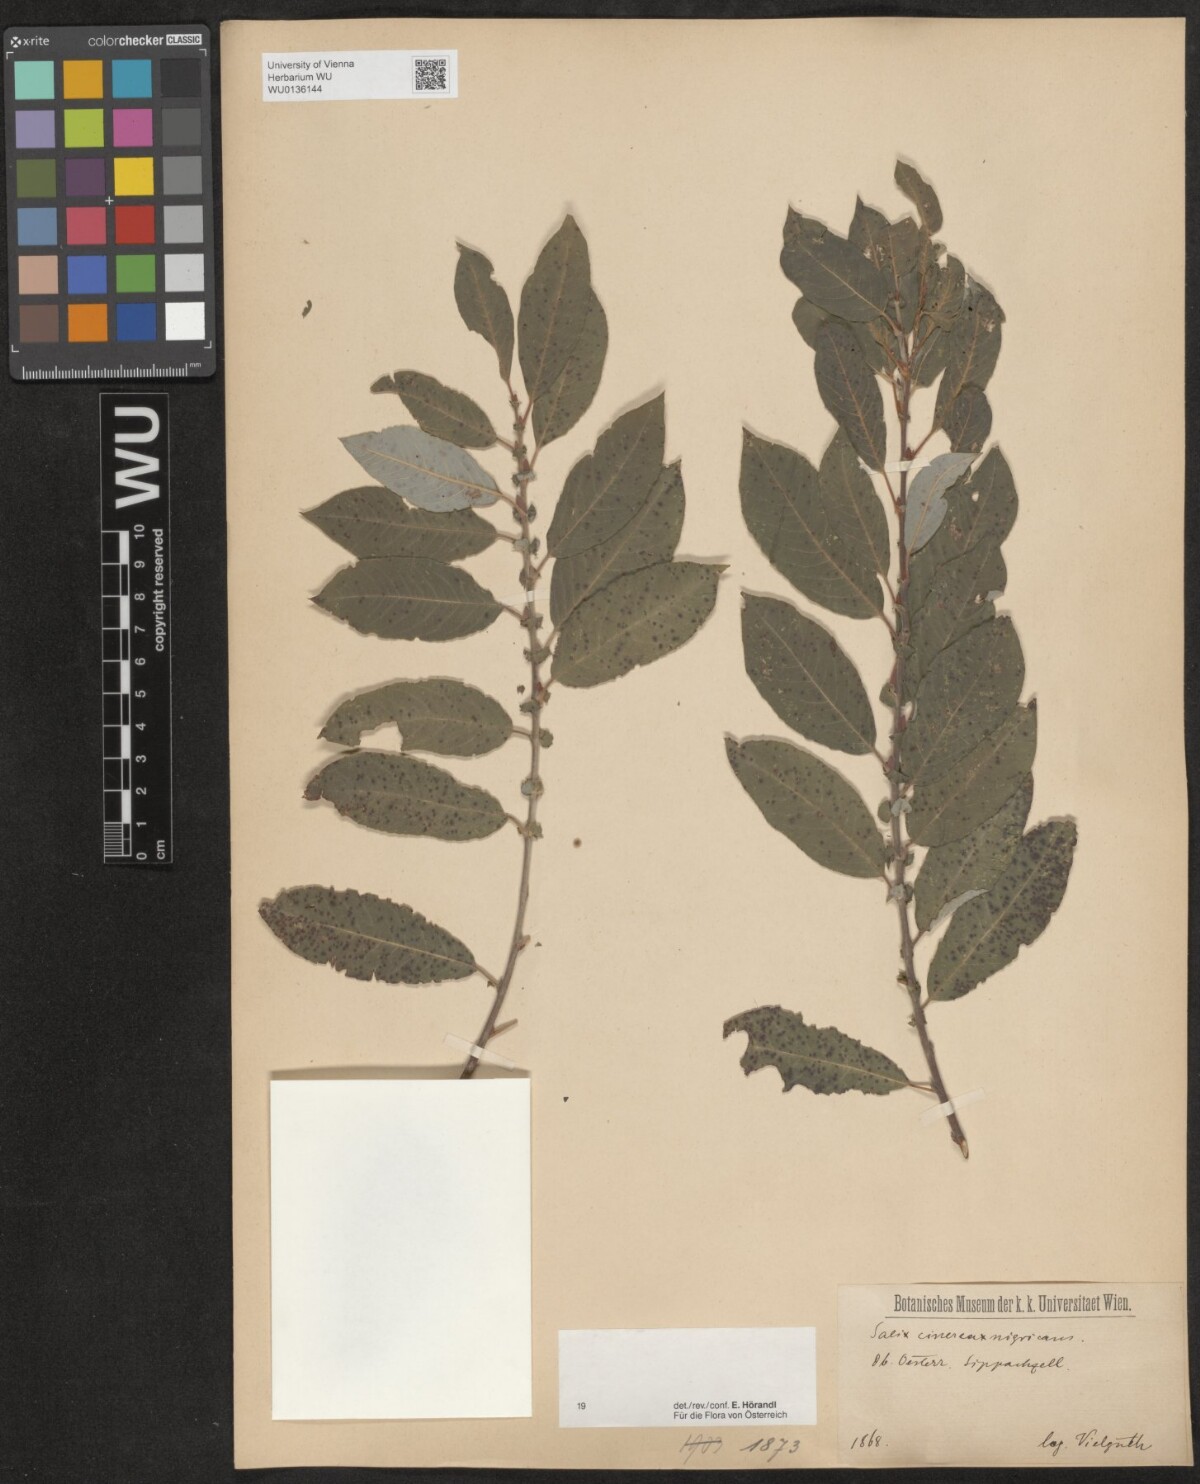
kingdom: Plantae
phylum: Tracheophyta
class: Magnoliopsida
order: Malpighiales
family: Salicaceae
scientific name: Salicaceae
